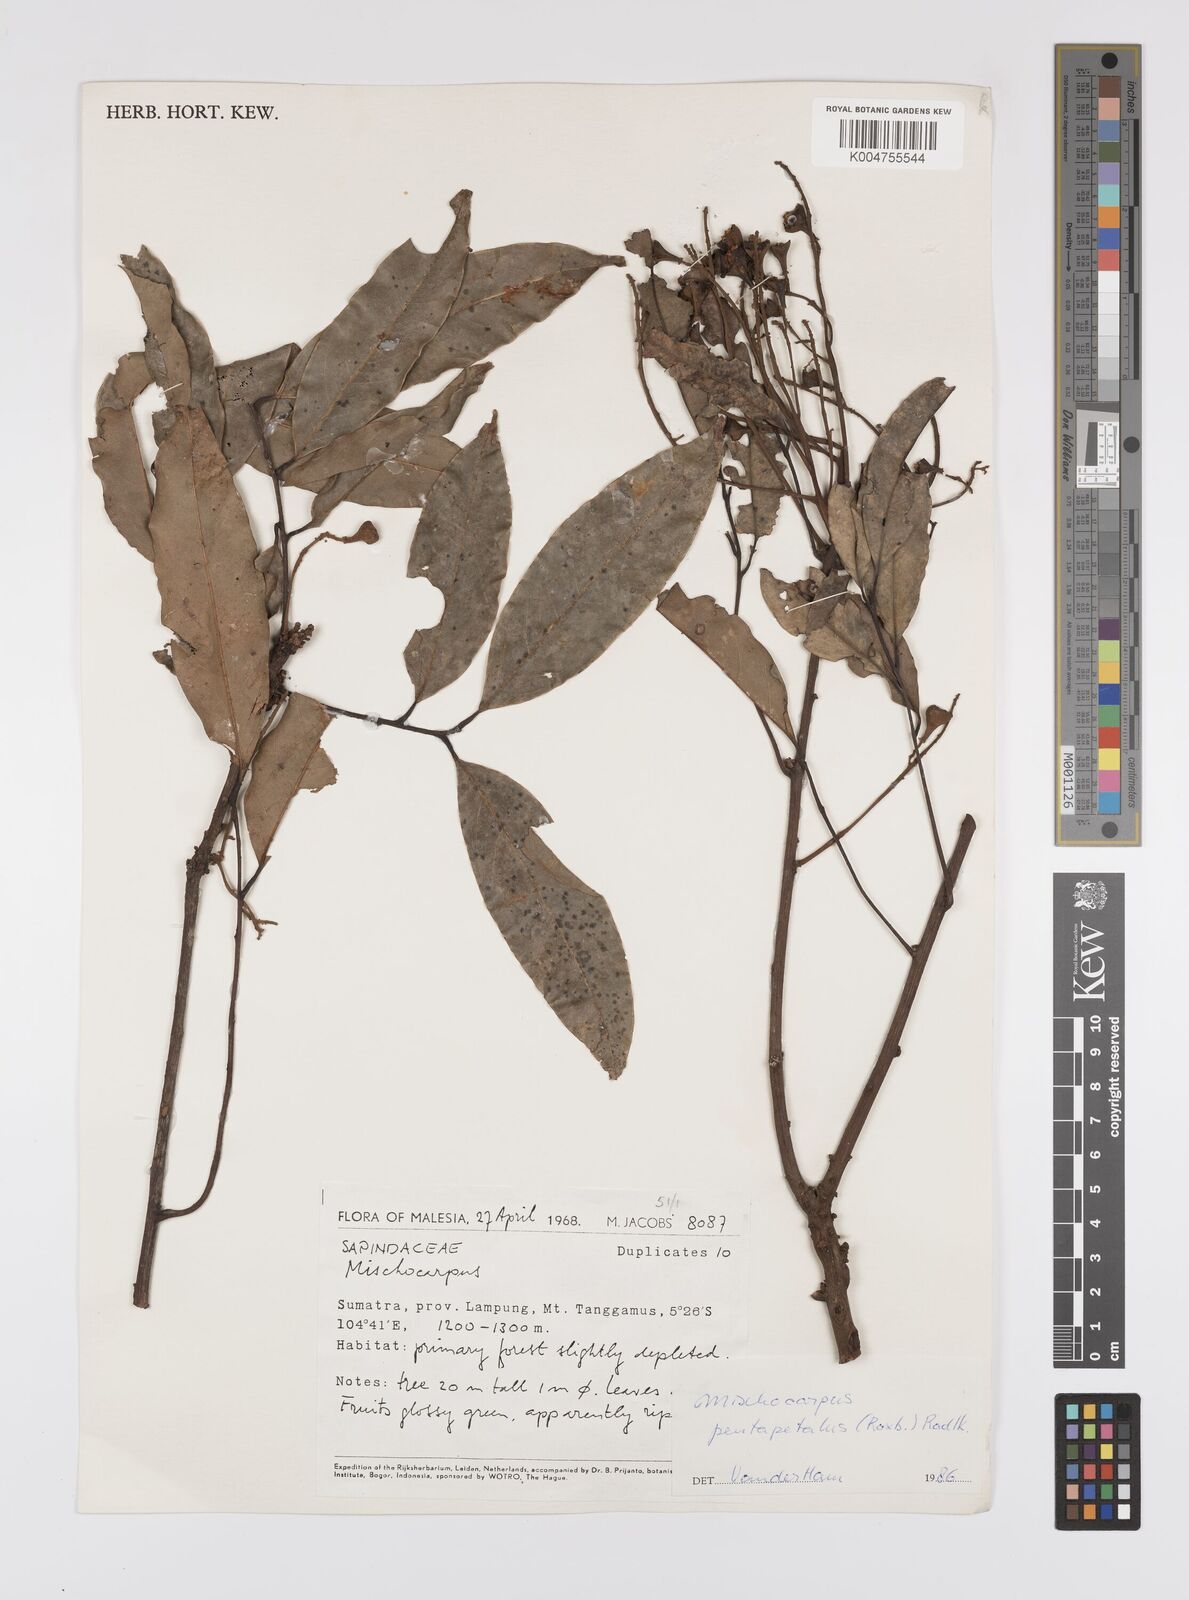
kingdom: Plantae
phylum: Tracheophyta
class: Magnoliopsida
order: Sapindales
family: Sapindaceae
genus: Mischocarpus
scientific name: Mischocarpus pentapetalus
